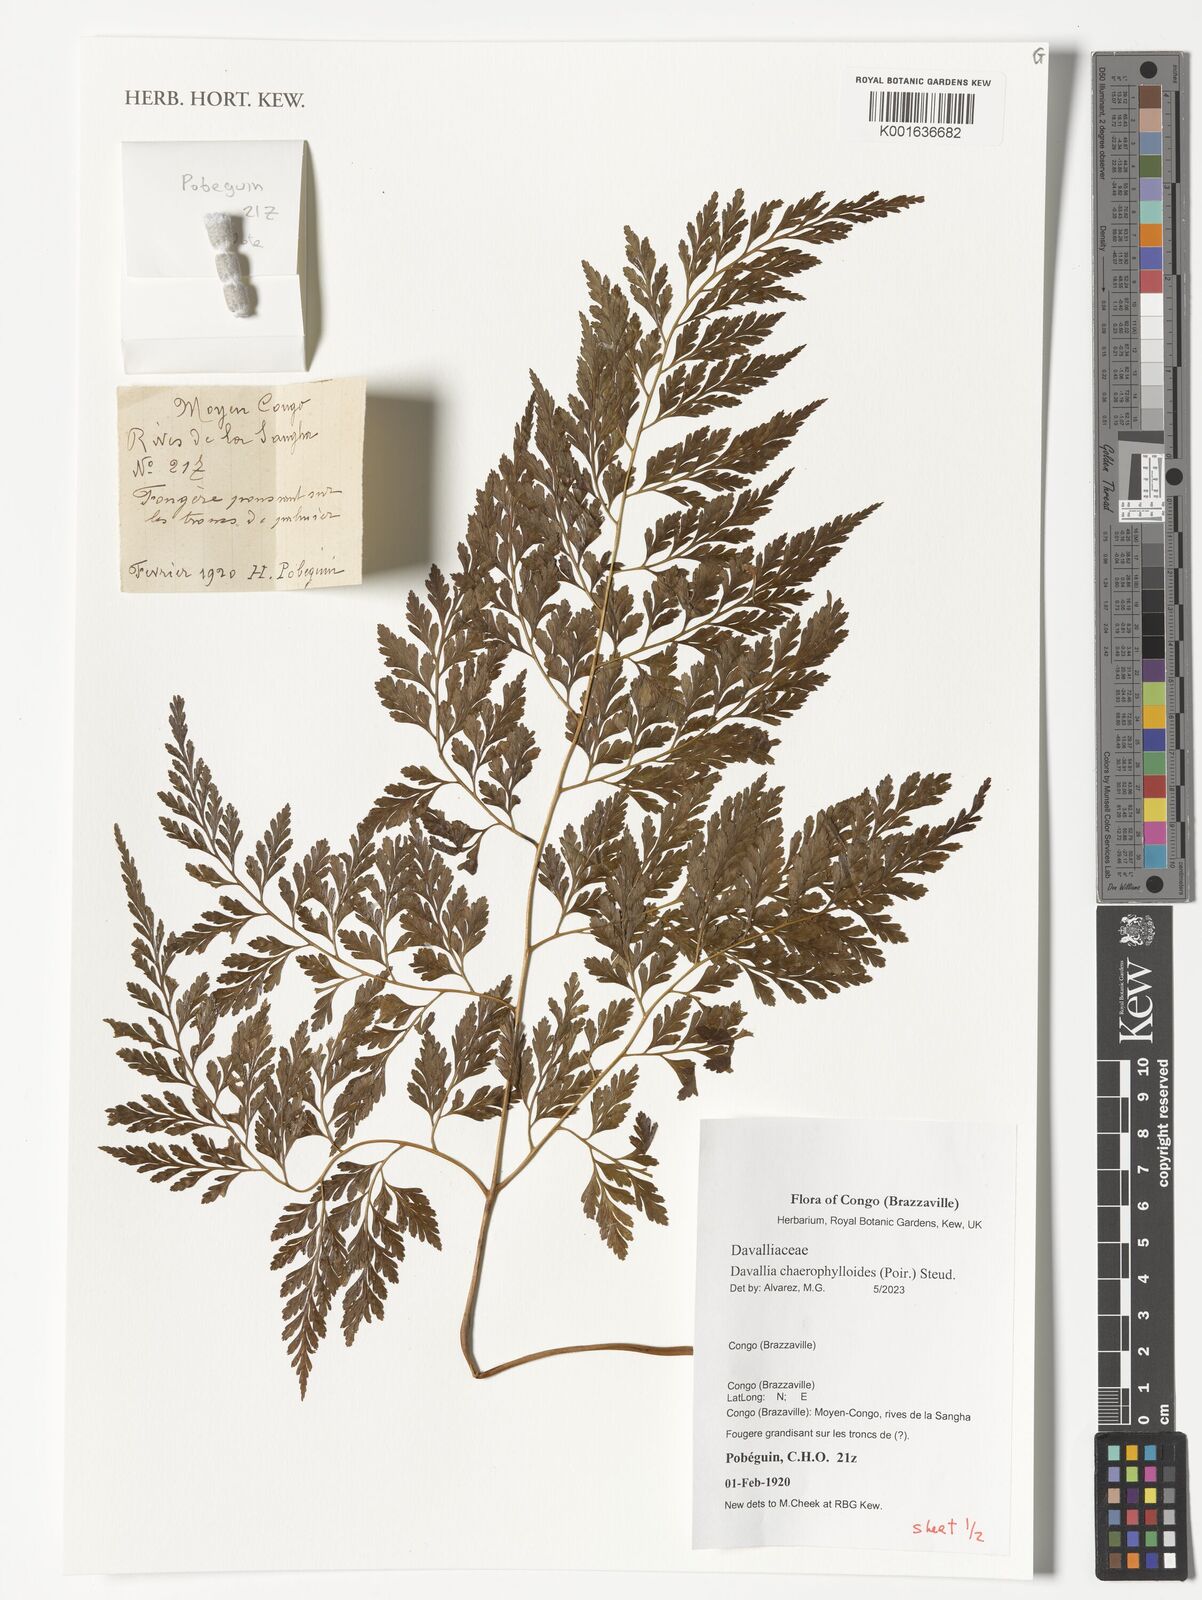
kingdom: Plantae
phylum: Tracheophyta
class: Polypodiopsida
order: Polypodiales
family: Davalliaceae
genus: Davallia
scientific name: Davallia chaerophylloides
